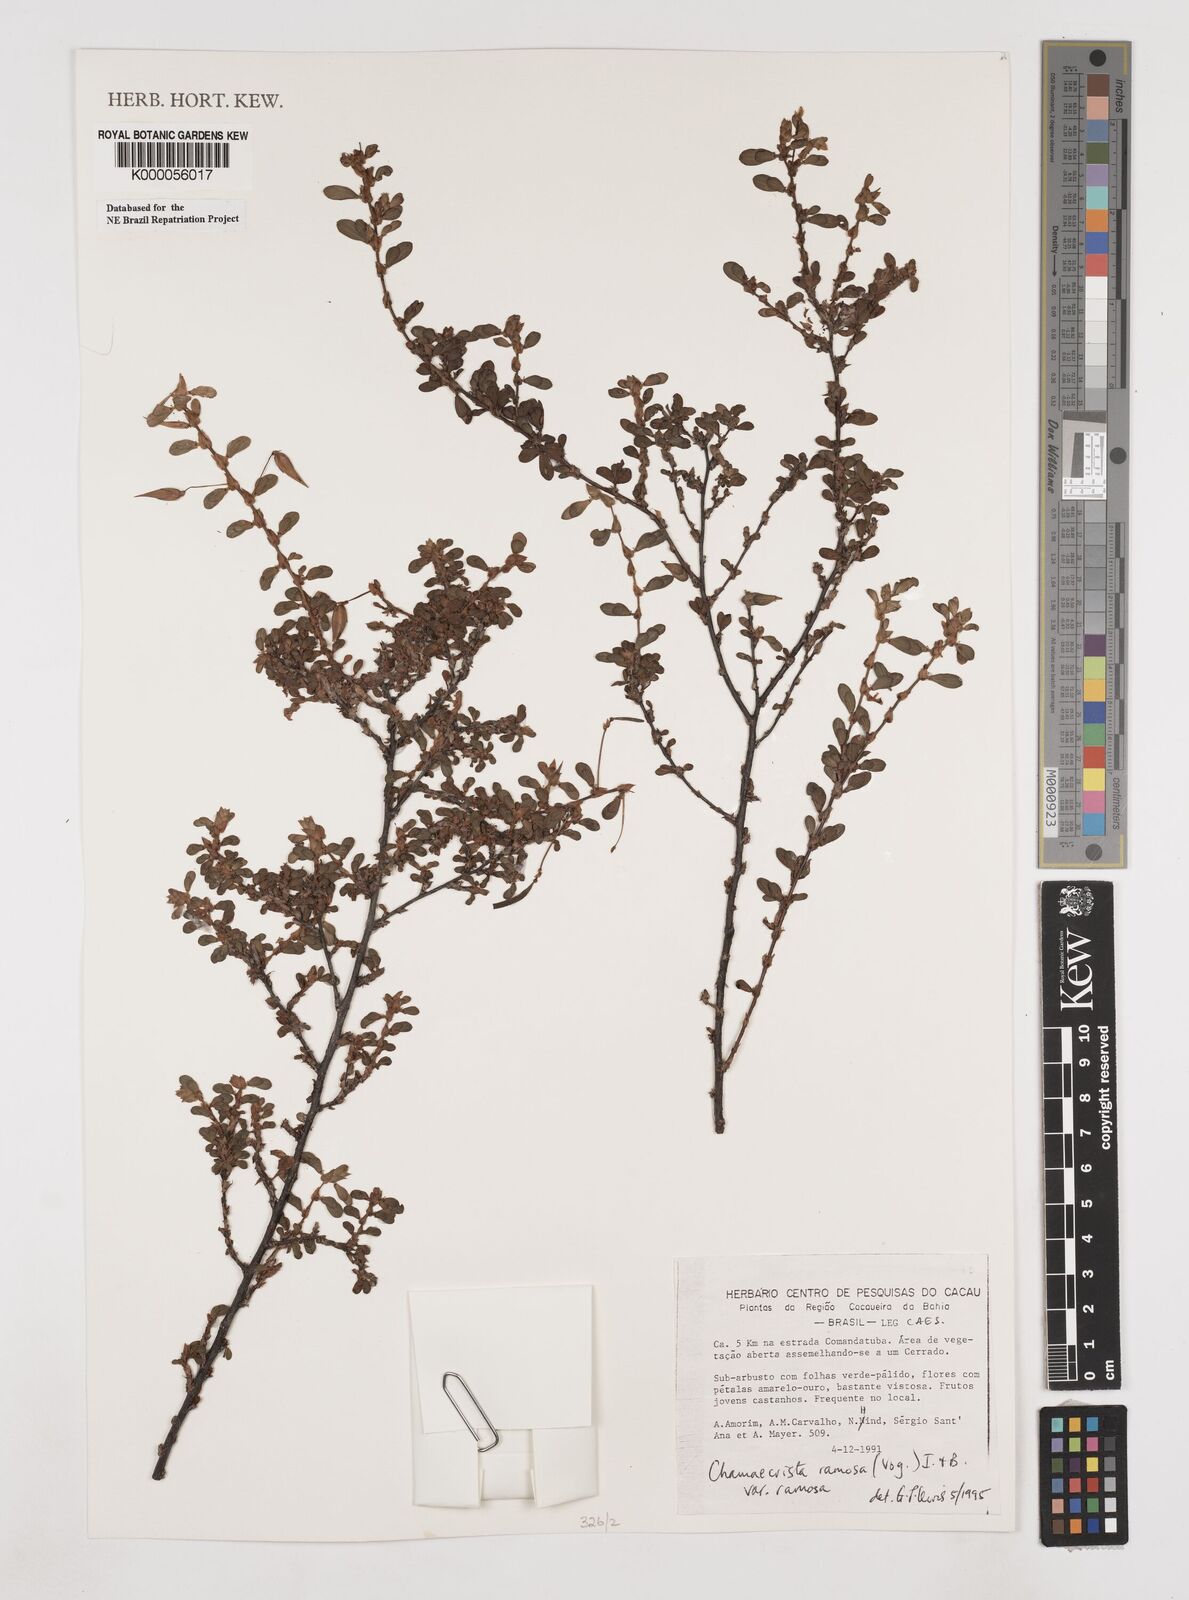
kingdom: Plantae
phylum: Tracheophyta
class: Magnoliopsida
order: Fabales
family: Fabaceae
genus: Chamaecrista
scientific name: Chamaecrista ramosa
